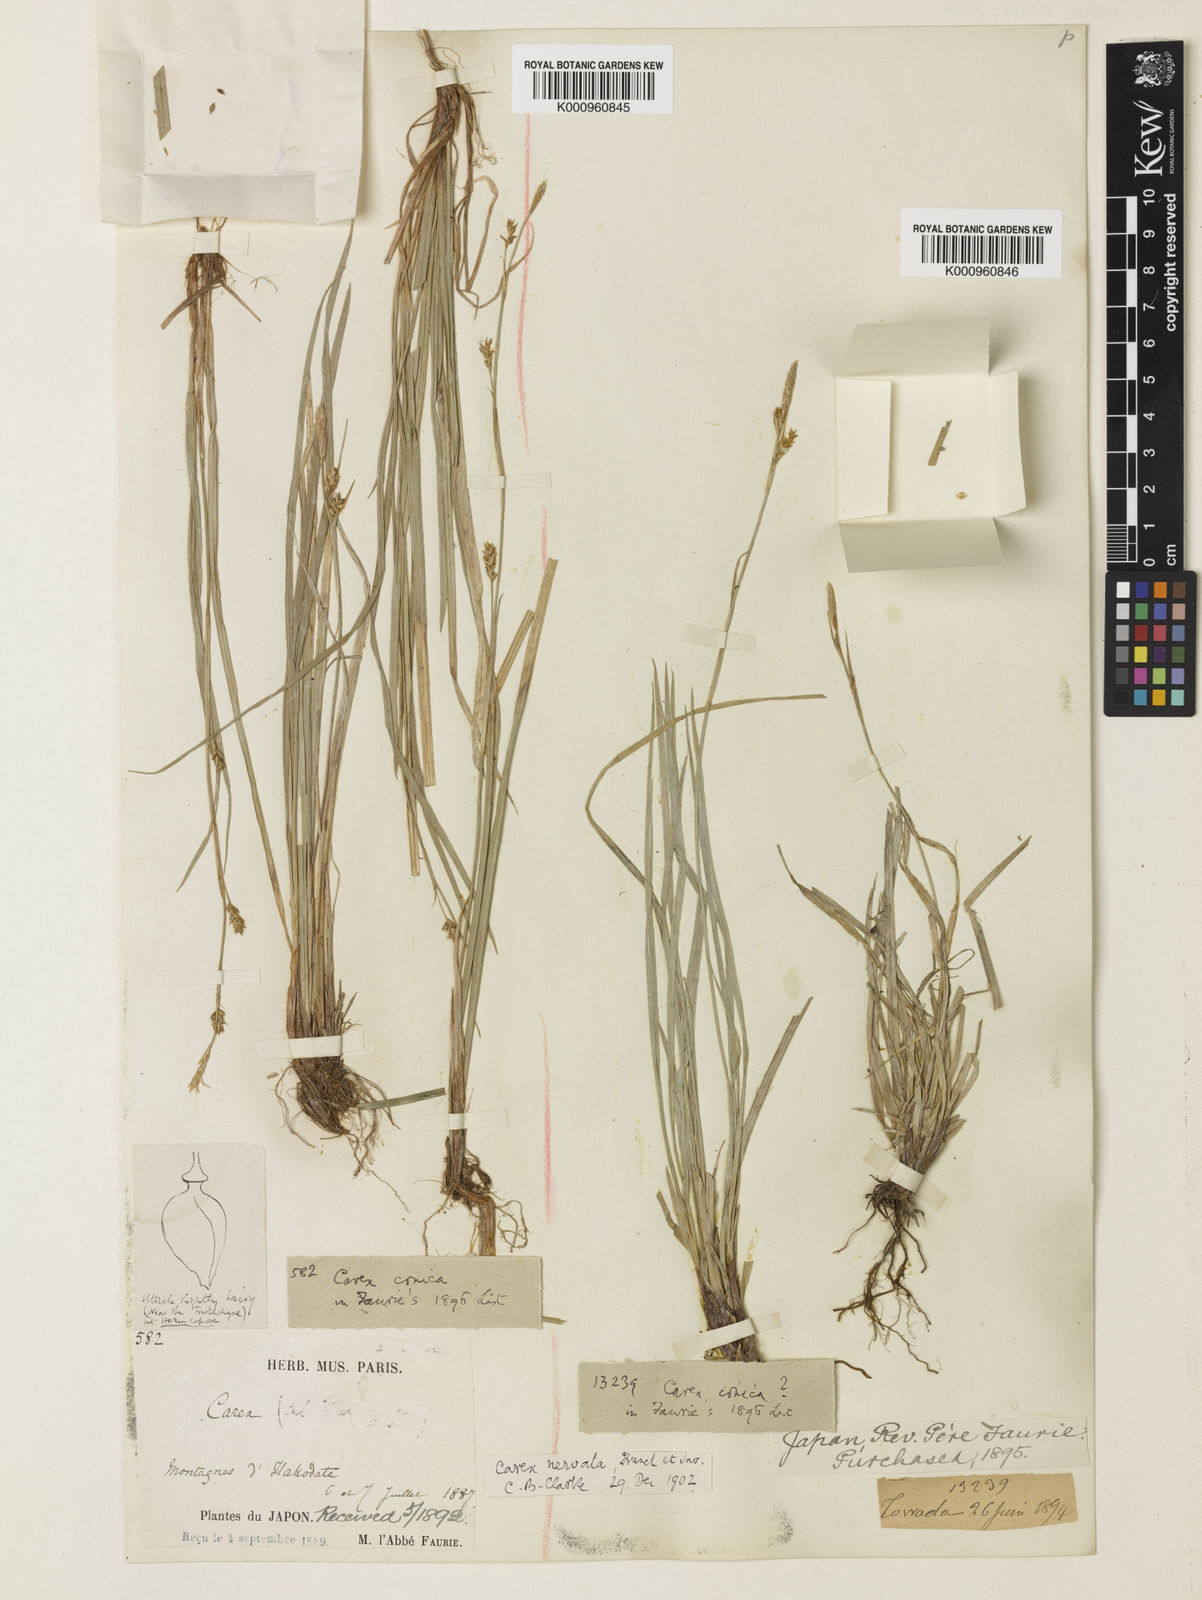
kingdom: Plantae
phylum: Tracheophyta
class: Liliopsida
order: Poales
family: Cyperaceae
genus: Carex
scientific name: Carex conica
